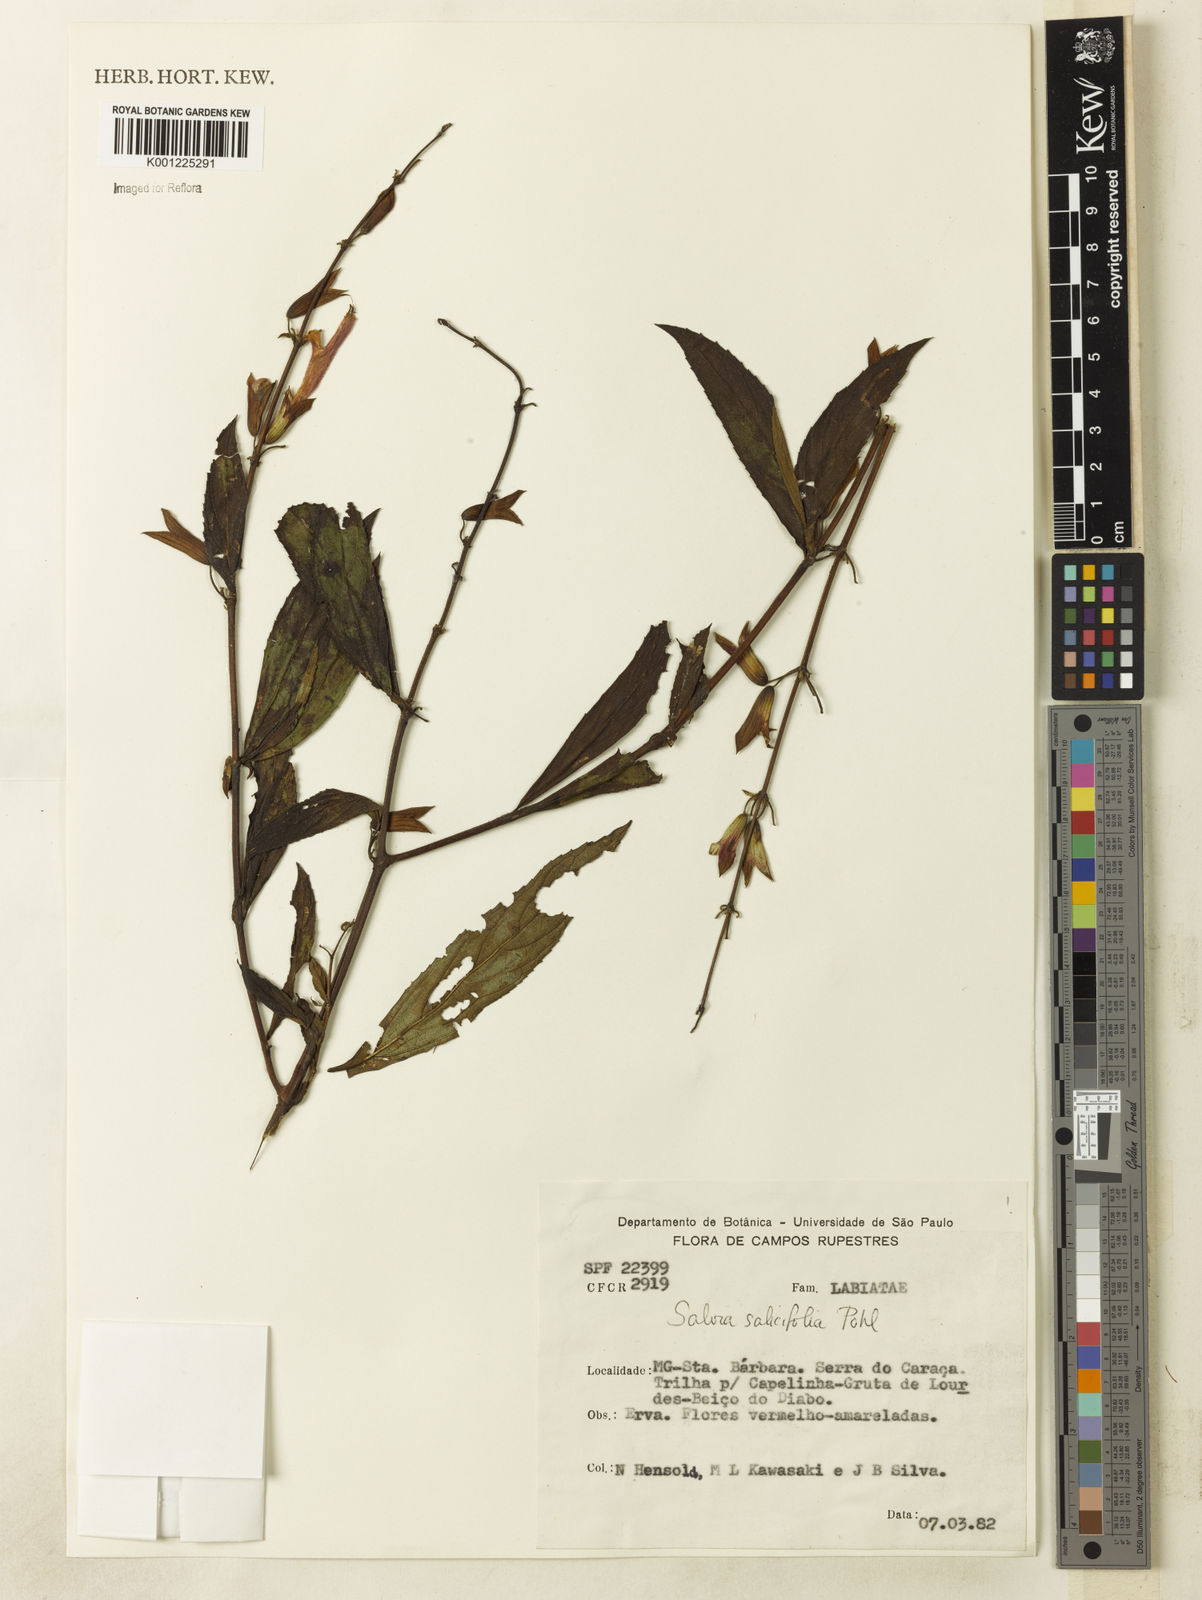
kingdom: Plantae
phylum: Tracheophyta
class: Magnoliopsida
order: Lamiales
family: Lamiaceae
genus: Salvia
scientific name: Salvia salicifolia
